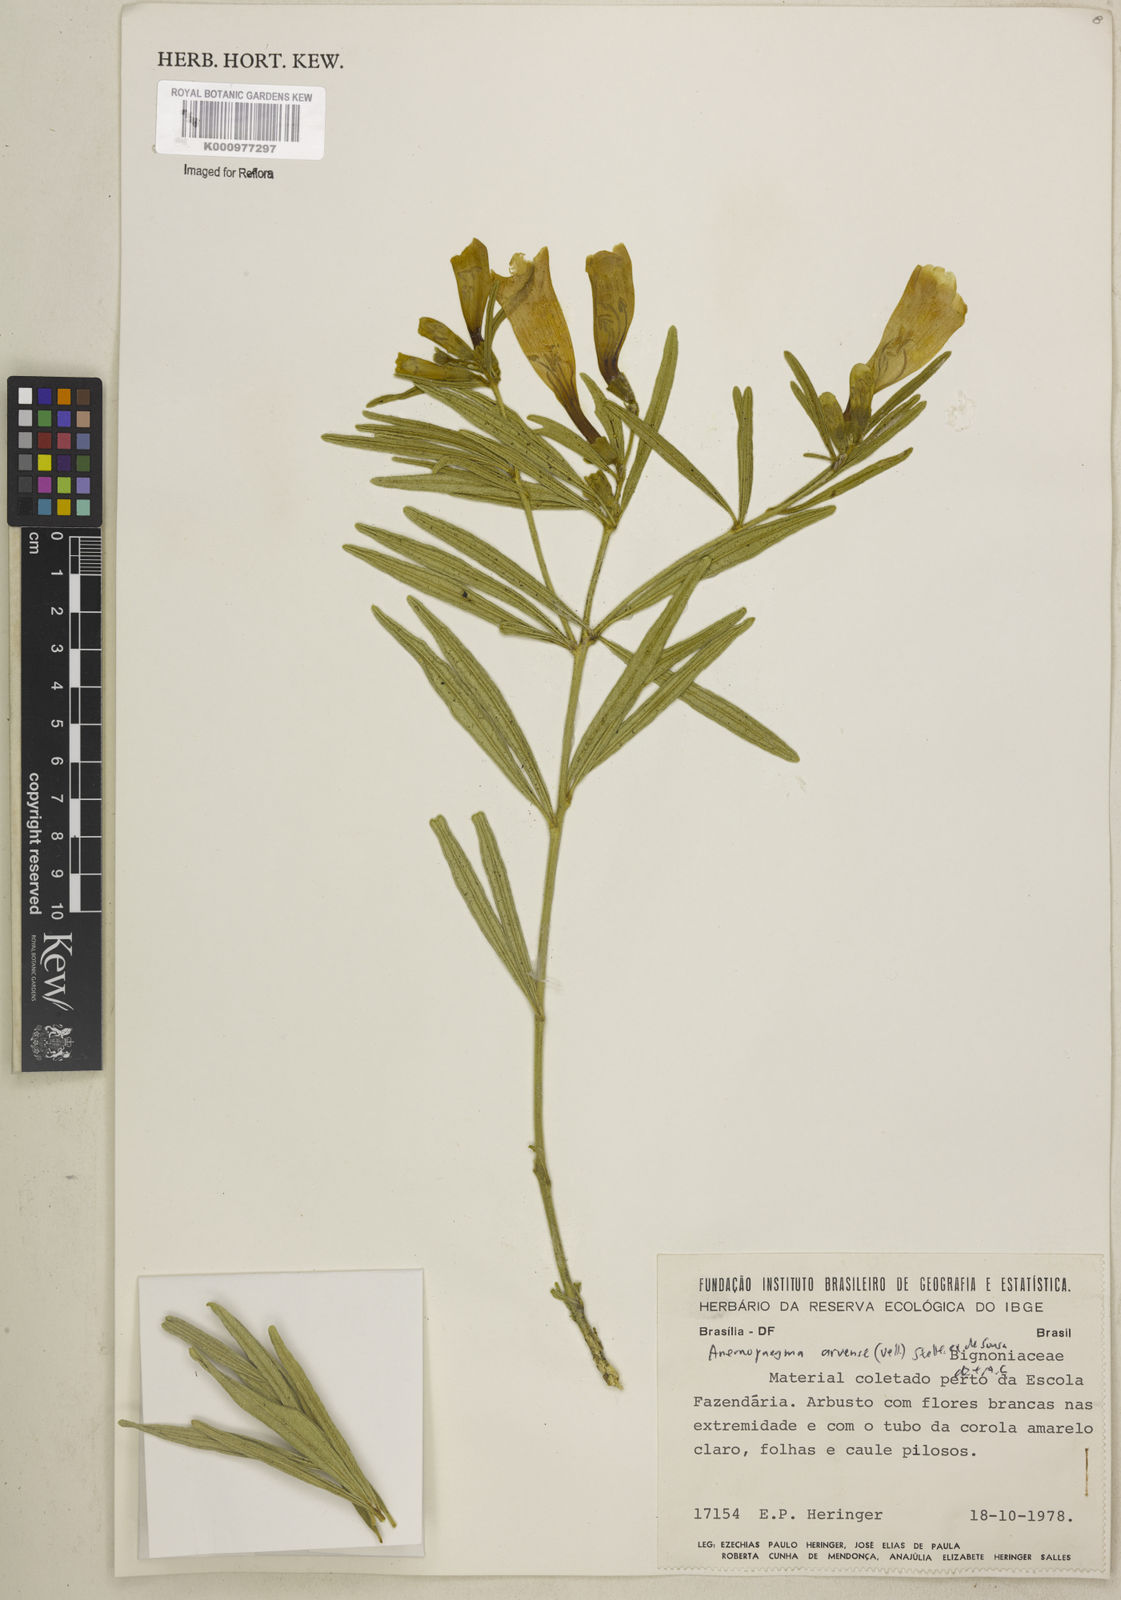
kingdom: Plantae
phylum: Tracheophyta
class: Magnoliopsida
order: Lamiales
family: Bignoniaceae
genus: Anemopaegma
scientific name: Anemopaegma arvense
